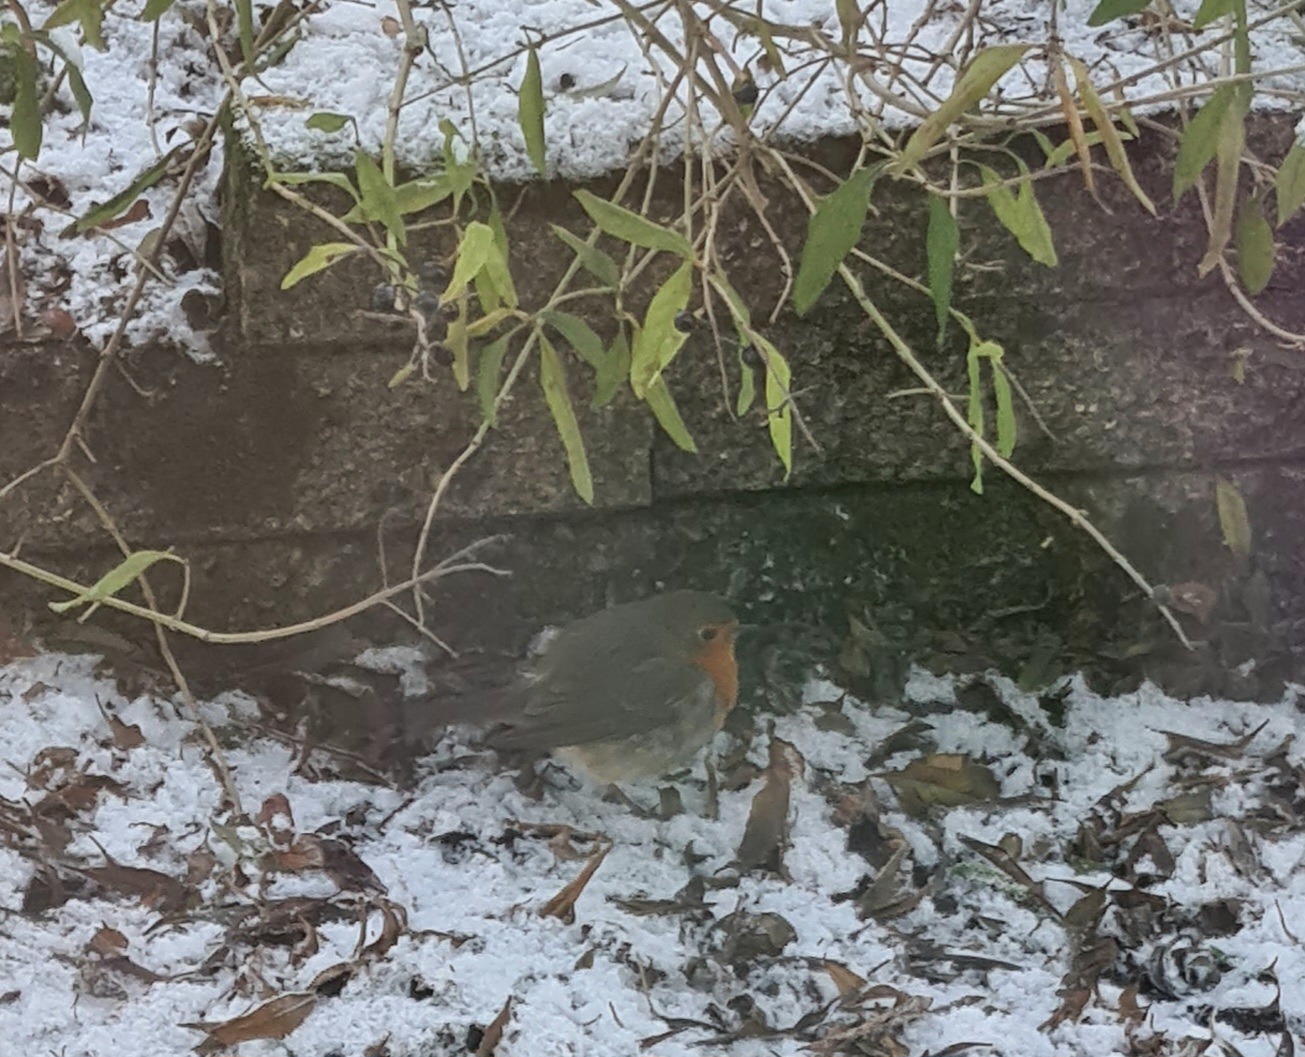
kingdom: Animalia
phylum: Chordata
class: Aves
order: Passeriformes
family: Muscicapidae
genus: Erithacus
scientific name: Erithacus rubecula
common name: Rødhals/rødkælk
